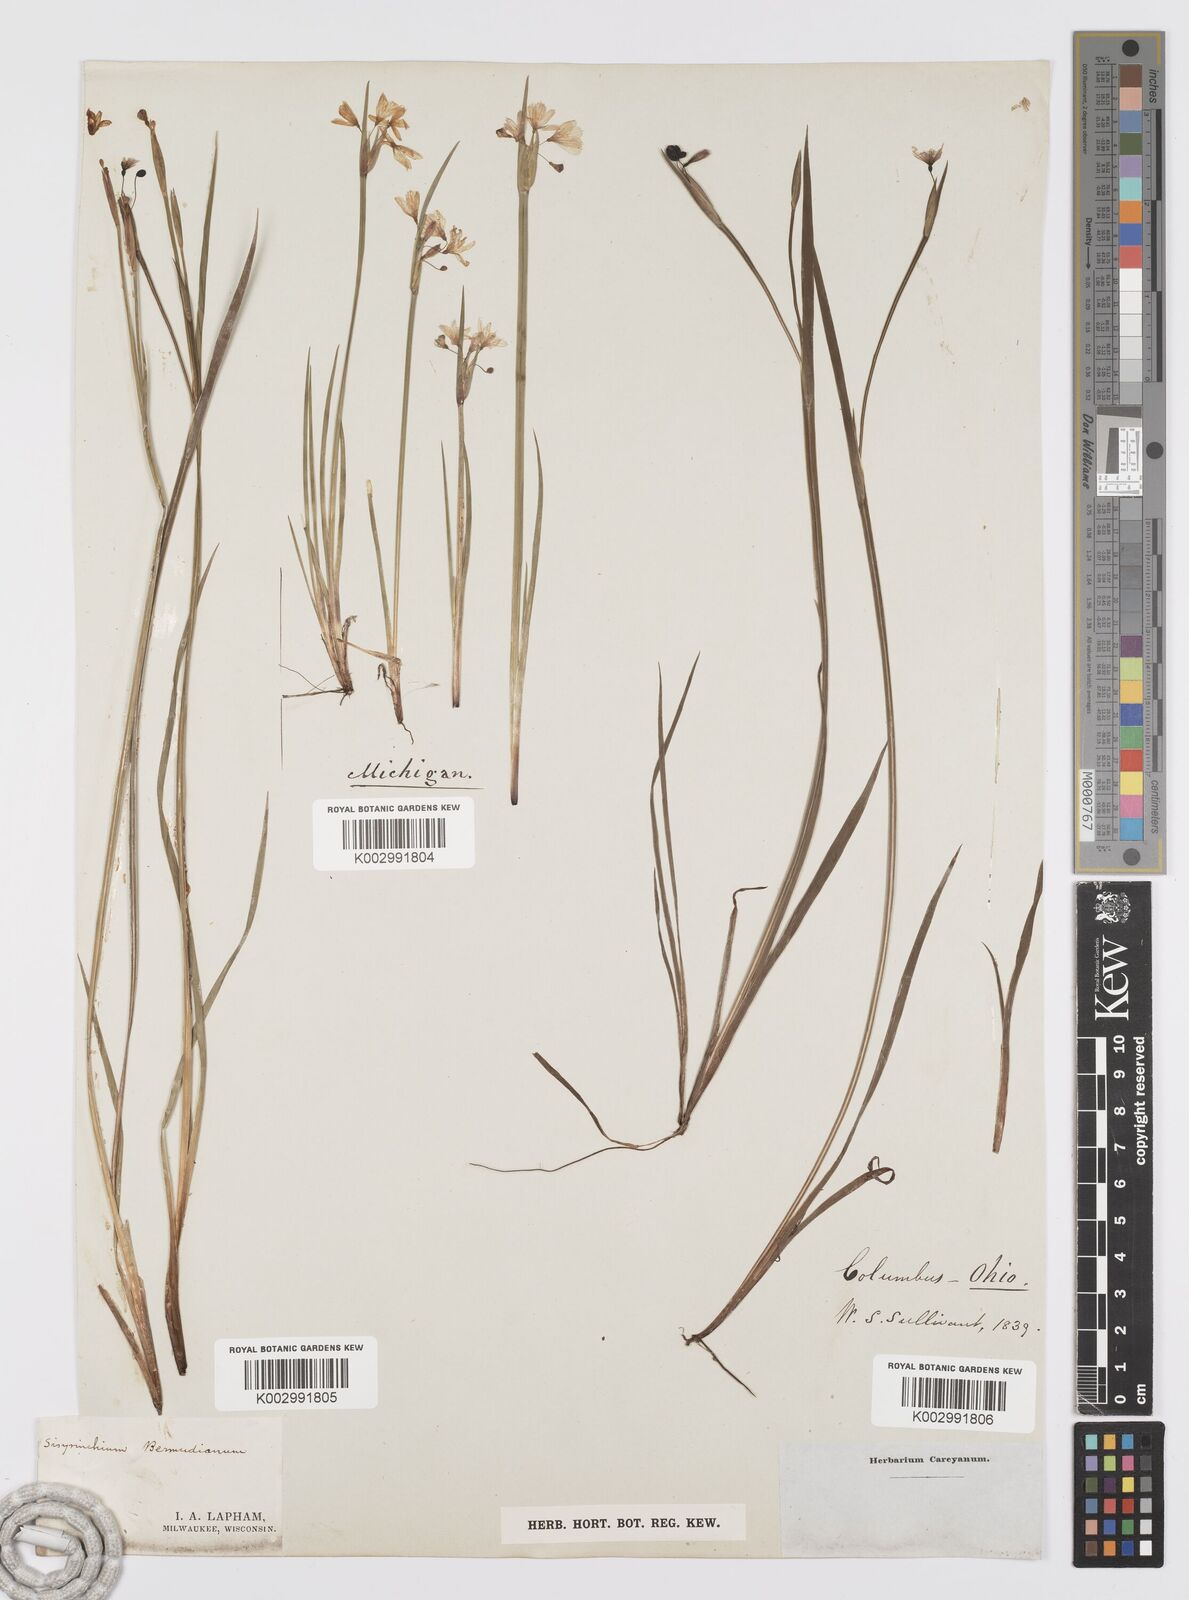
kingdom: Plantae
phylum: Tracheophyta
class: Liliopsida
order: Asparagales
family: Iridaceae
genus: Sisyrinchium
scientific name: Sisyrinchium bermudiana
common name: Blue-eyed-grass
